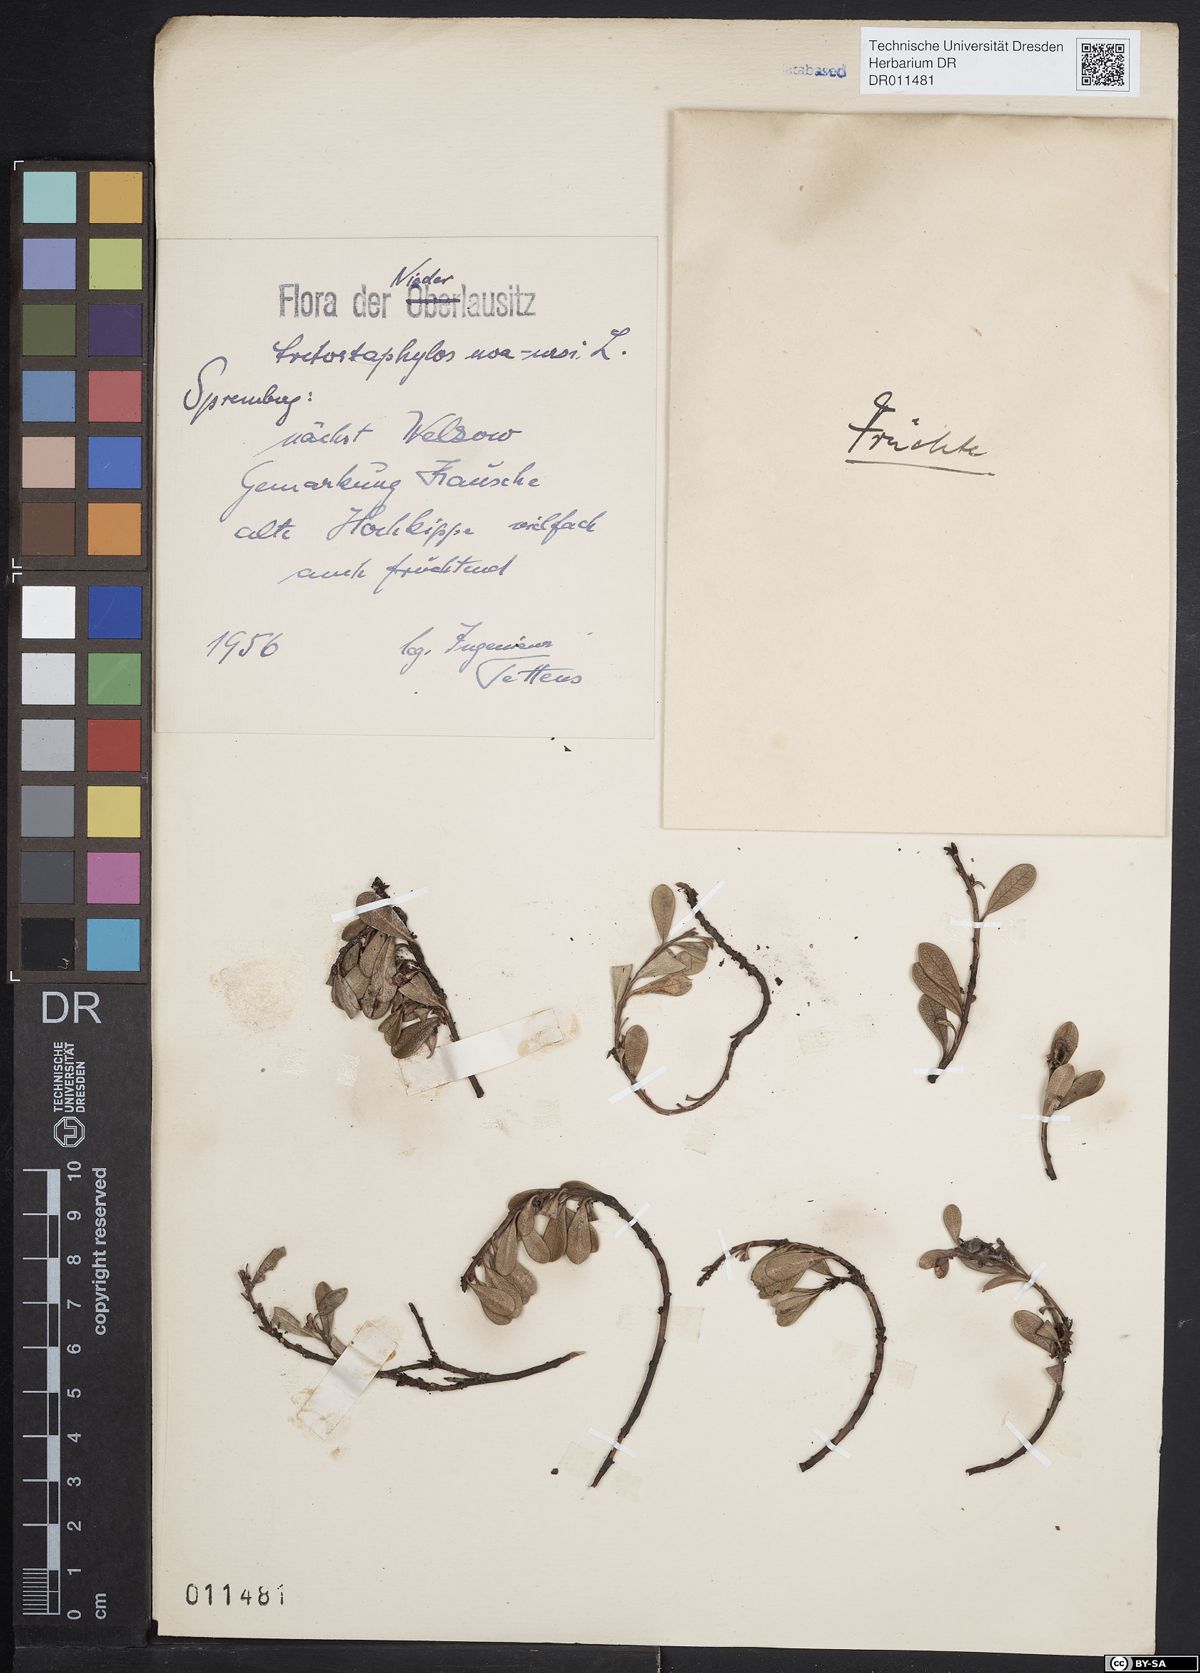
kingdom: Plantae
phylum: Tracheophyta
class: Magnoliopsida
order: Ericales
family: Ericaceae
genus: Arctostaphylos
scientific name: Arctostaphylos uva-ursi
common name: Bearberry
